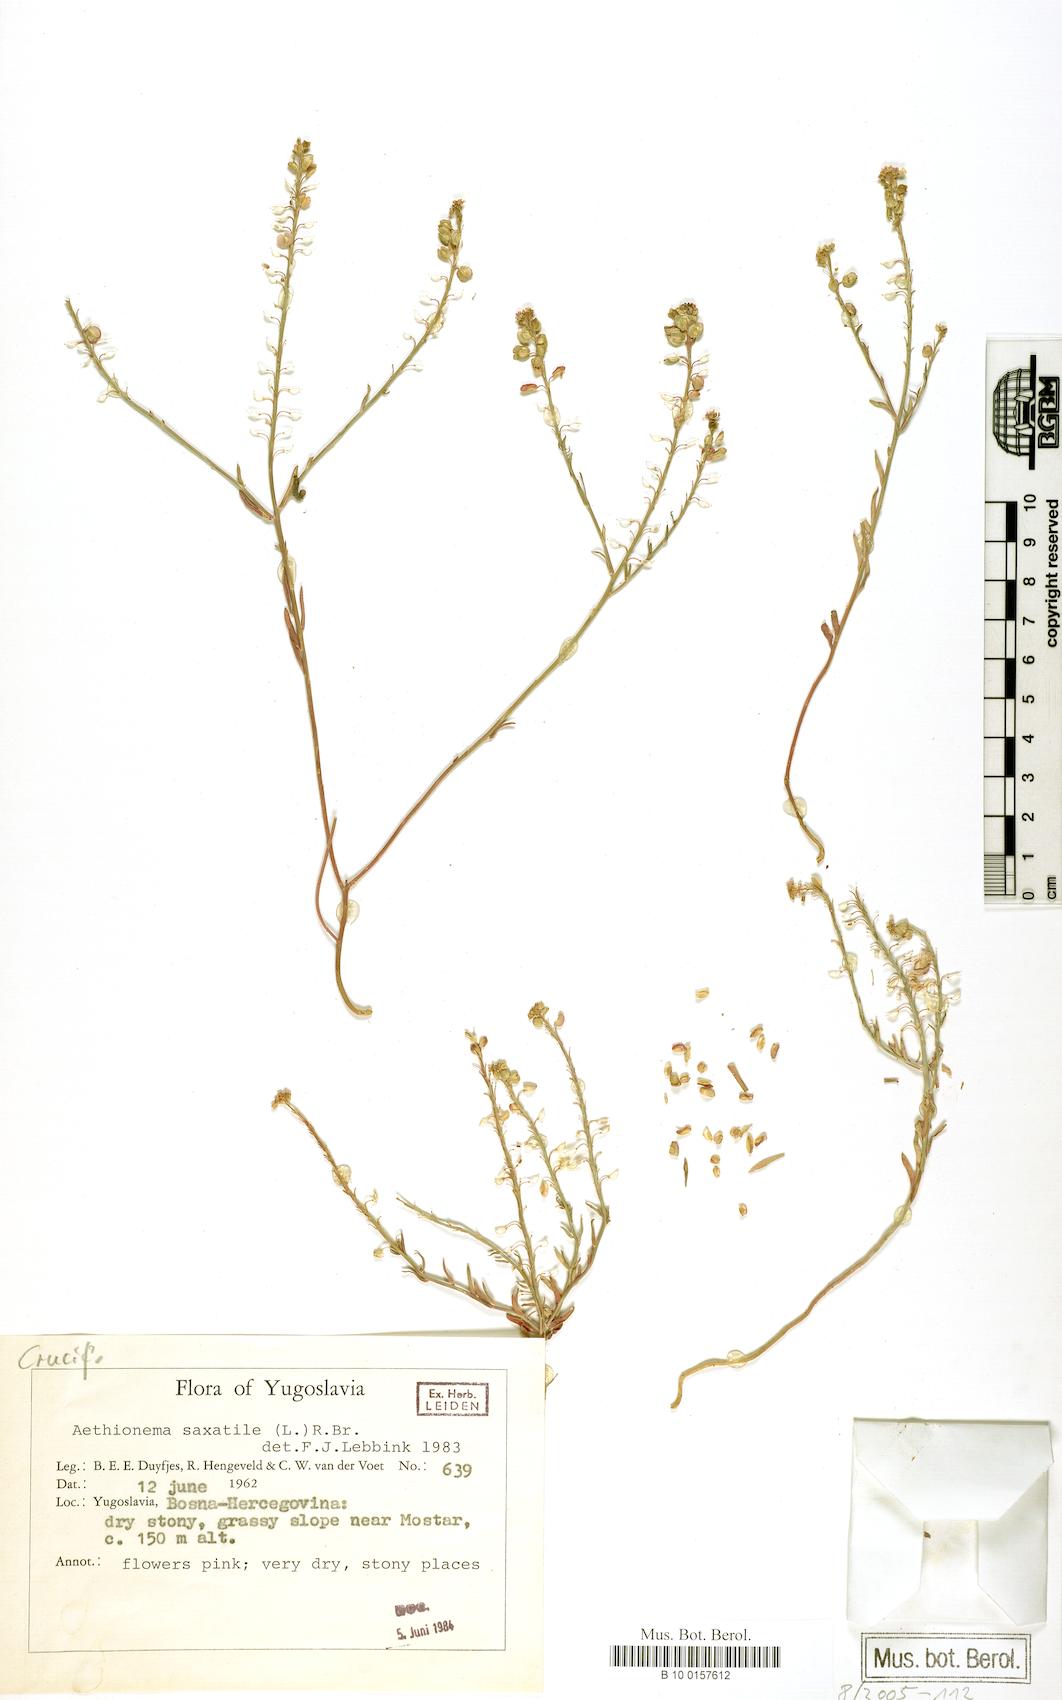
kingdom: Plantae
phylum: Tracheophyta
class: Magnoliopsida
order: Brassicales
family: Brassicaceae
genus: Aethionema
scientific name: Aethionema saxatile
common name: Burnt candytuft
